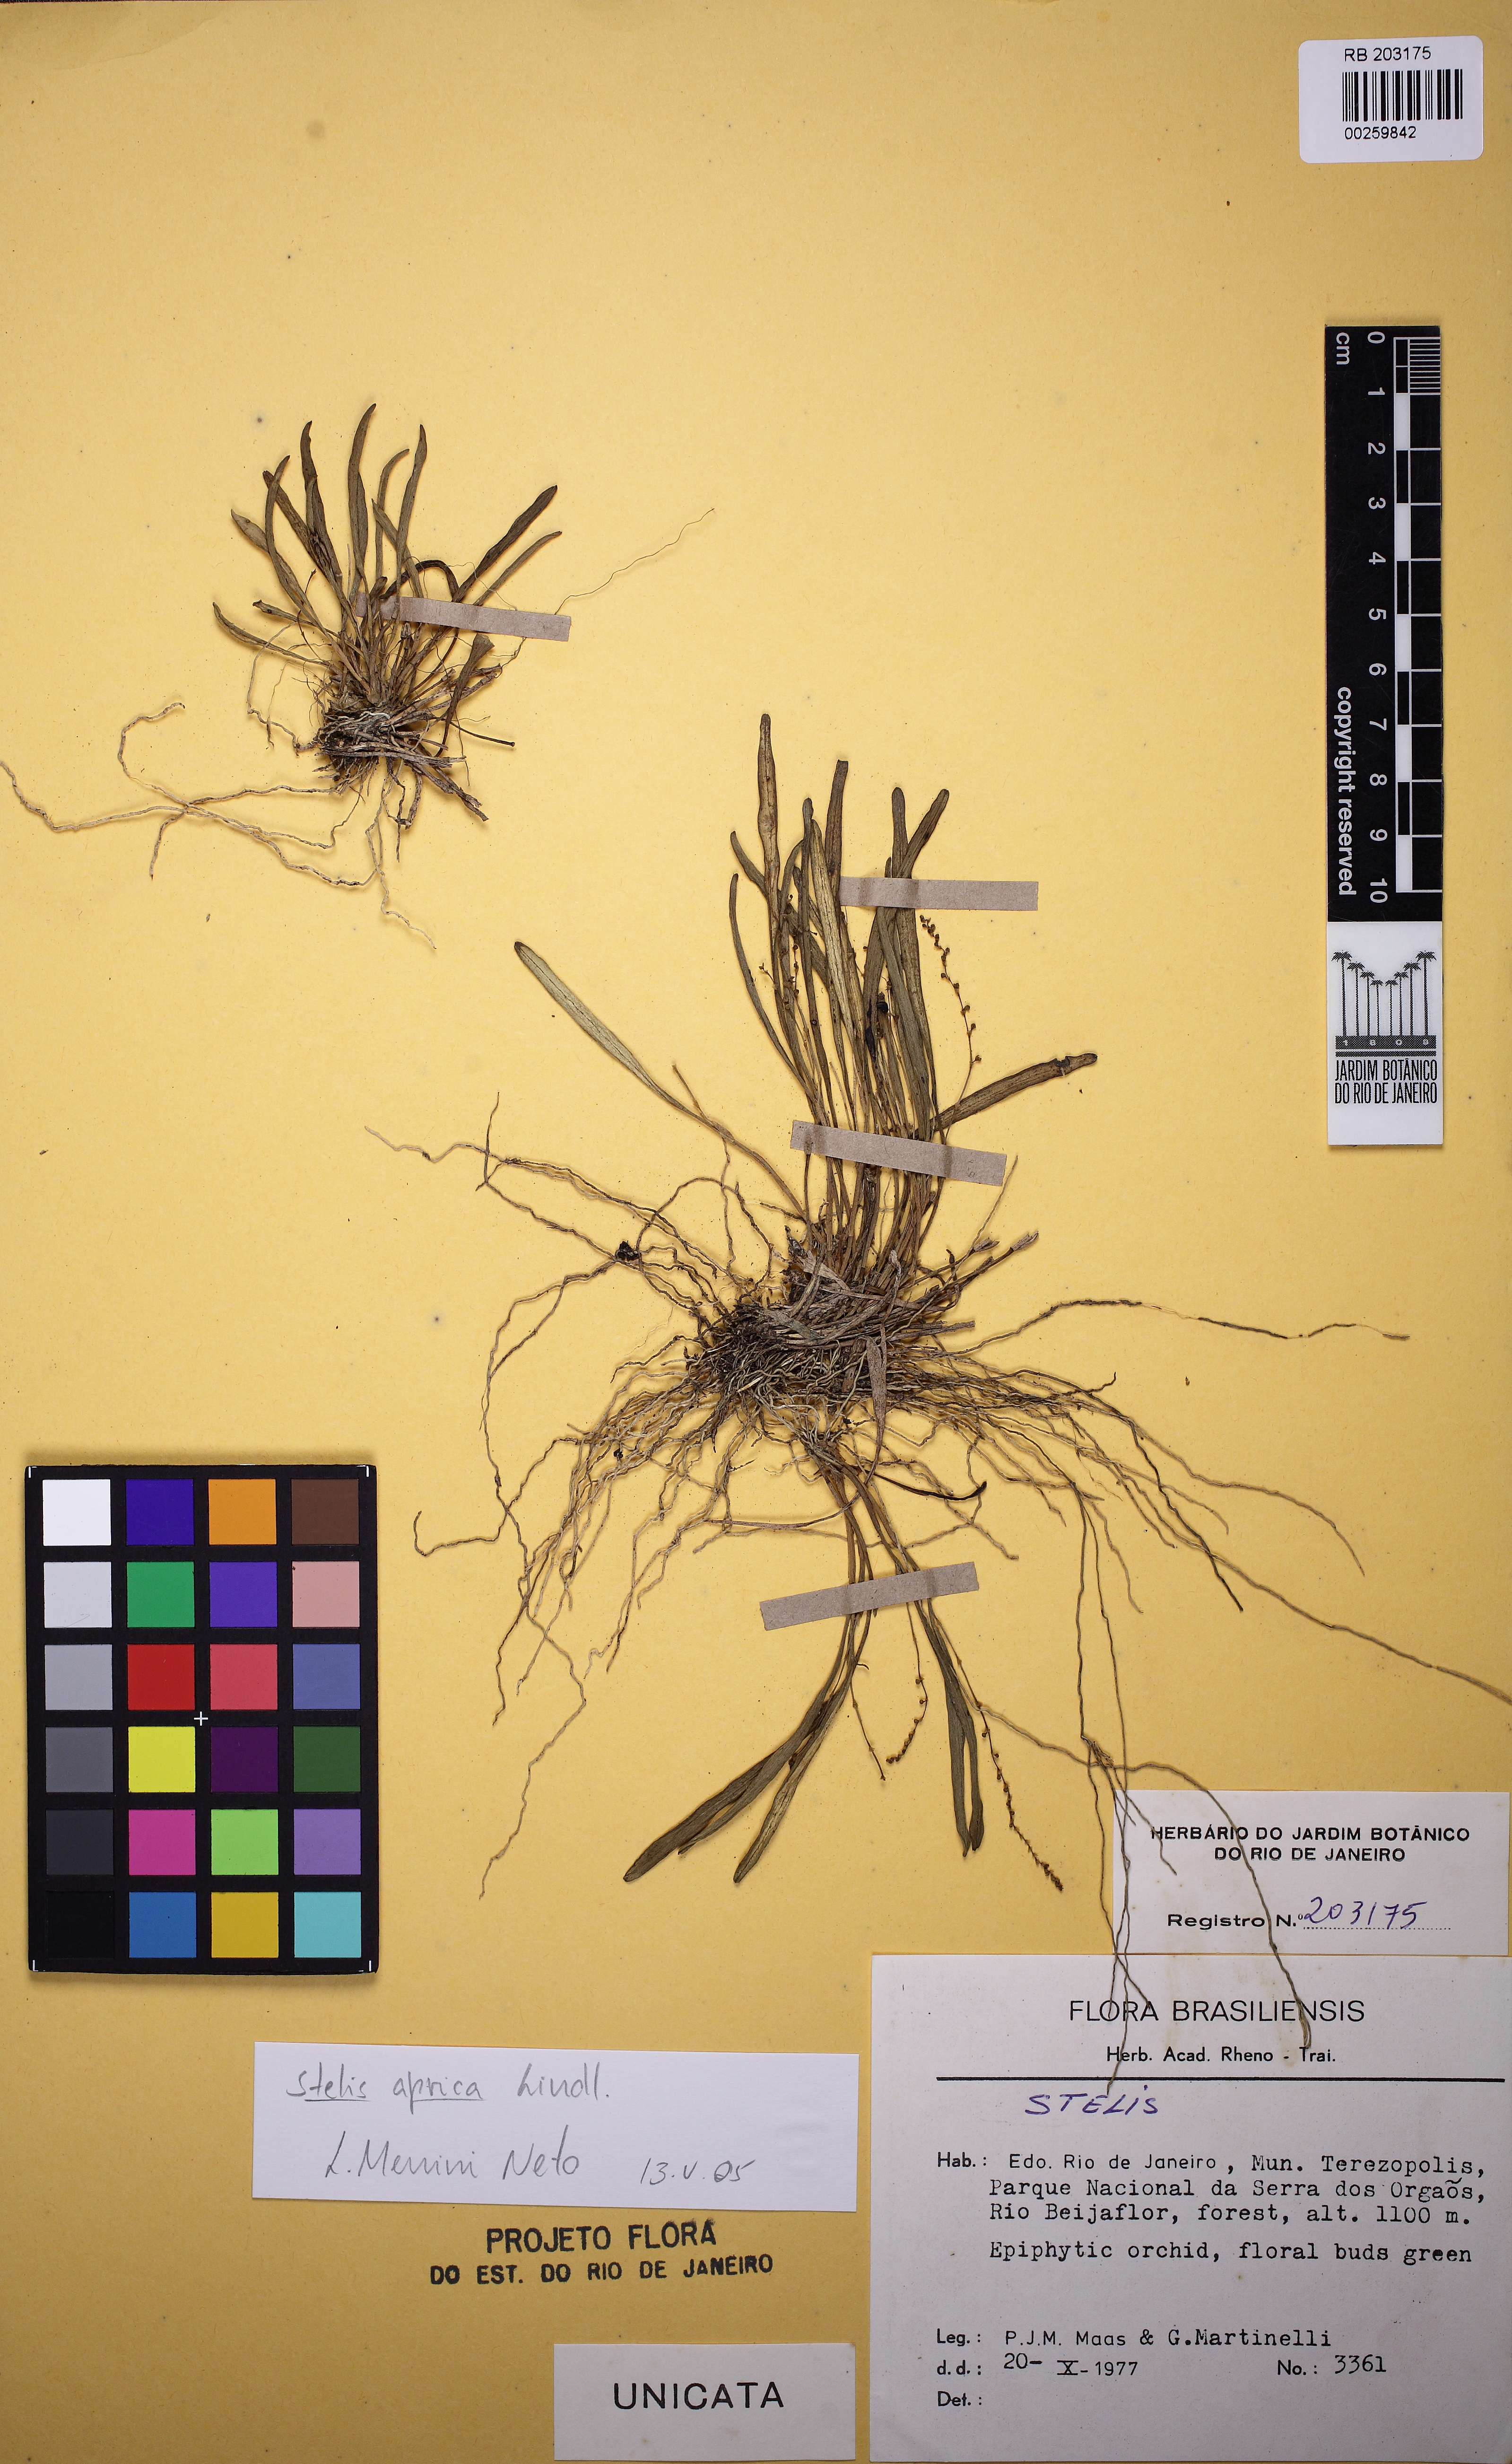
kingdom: Plantae
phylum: Tracheophyta
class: Liliopsida
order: Asparagales
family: Orchidaceae
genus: Stelis
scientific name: Stelis aprica
